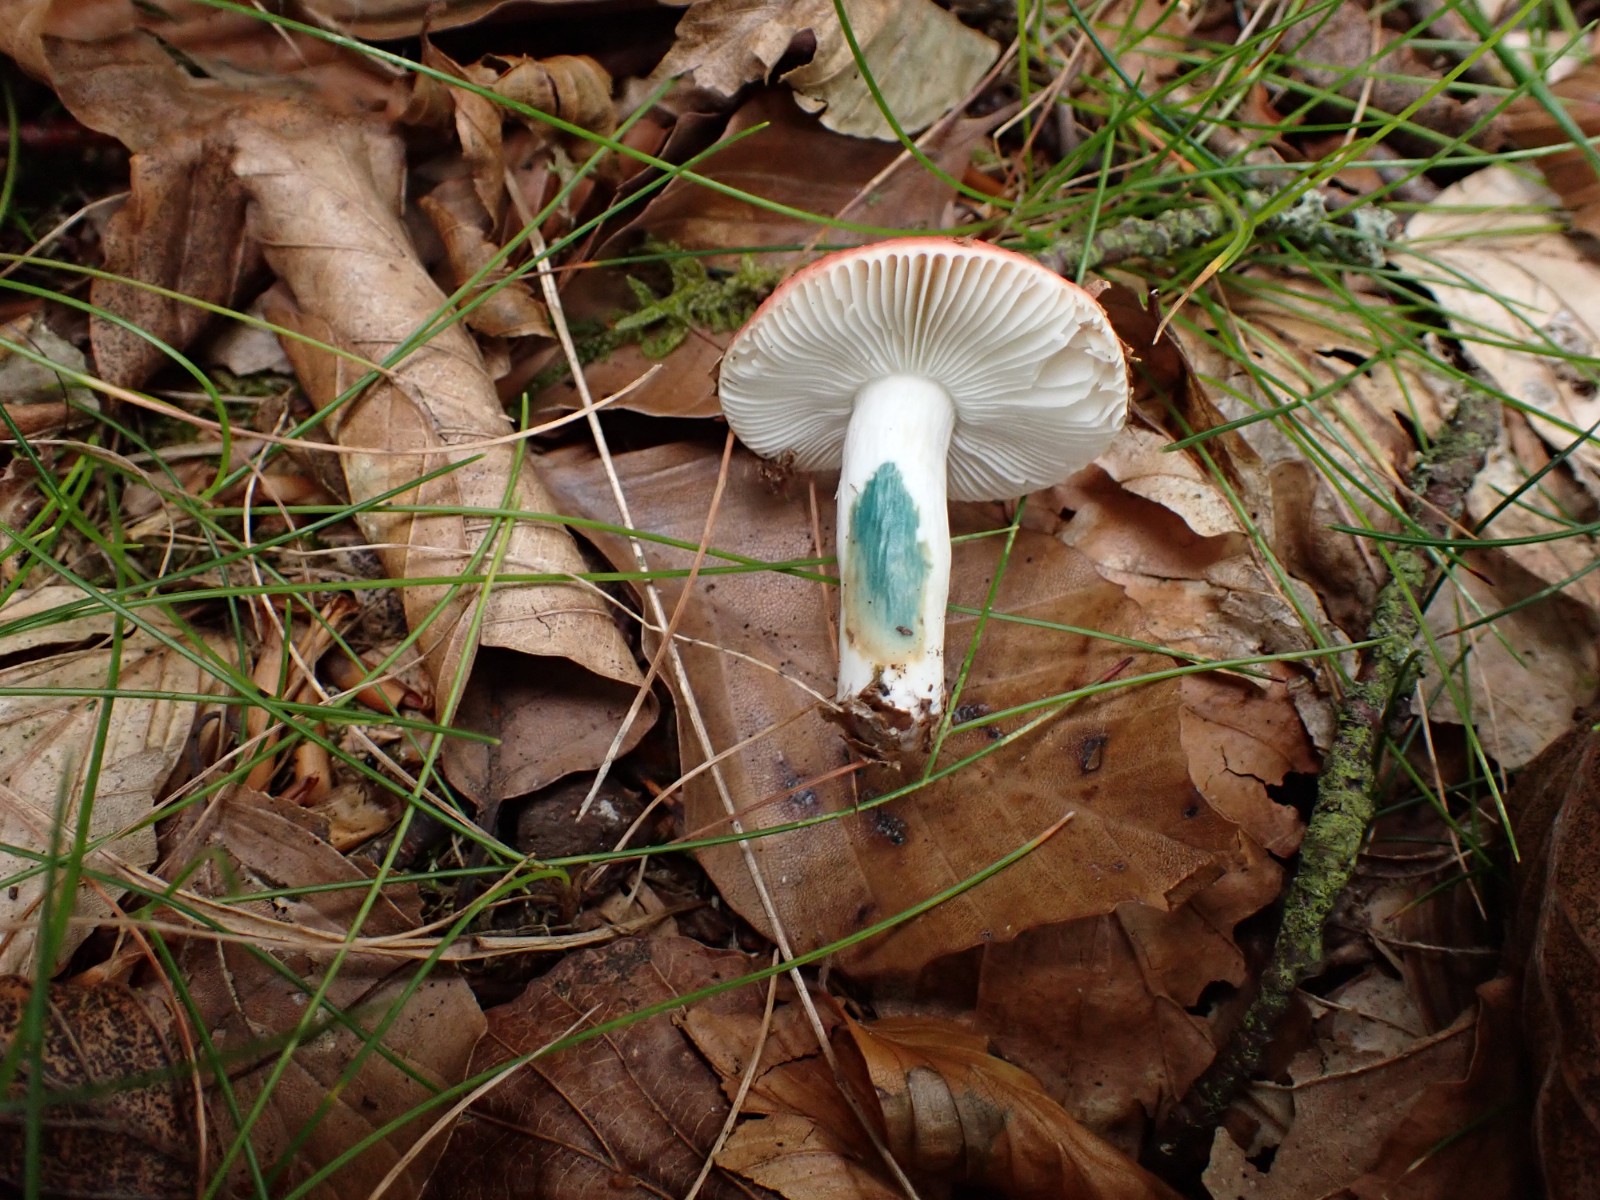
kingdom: Fungi
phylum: Basidiomycota
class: Agaricomycetes
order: Russulales
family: Russulaceae
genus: Russula
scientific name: Russula nobilis
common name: lille gift-skørhat
